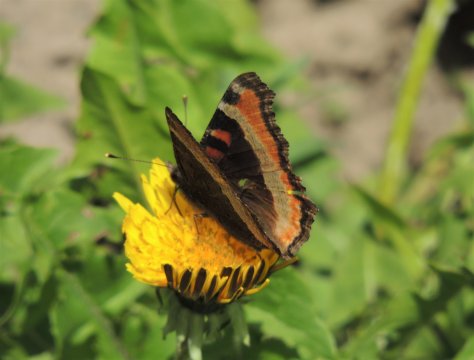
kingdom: Animalia
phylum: Arthropoda
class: Insecta
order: Lepidoptera
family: Nymphalidae
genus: Aglais
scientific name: Aglais milberti
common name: Milbert's Tortoiseshell
